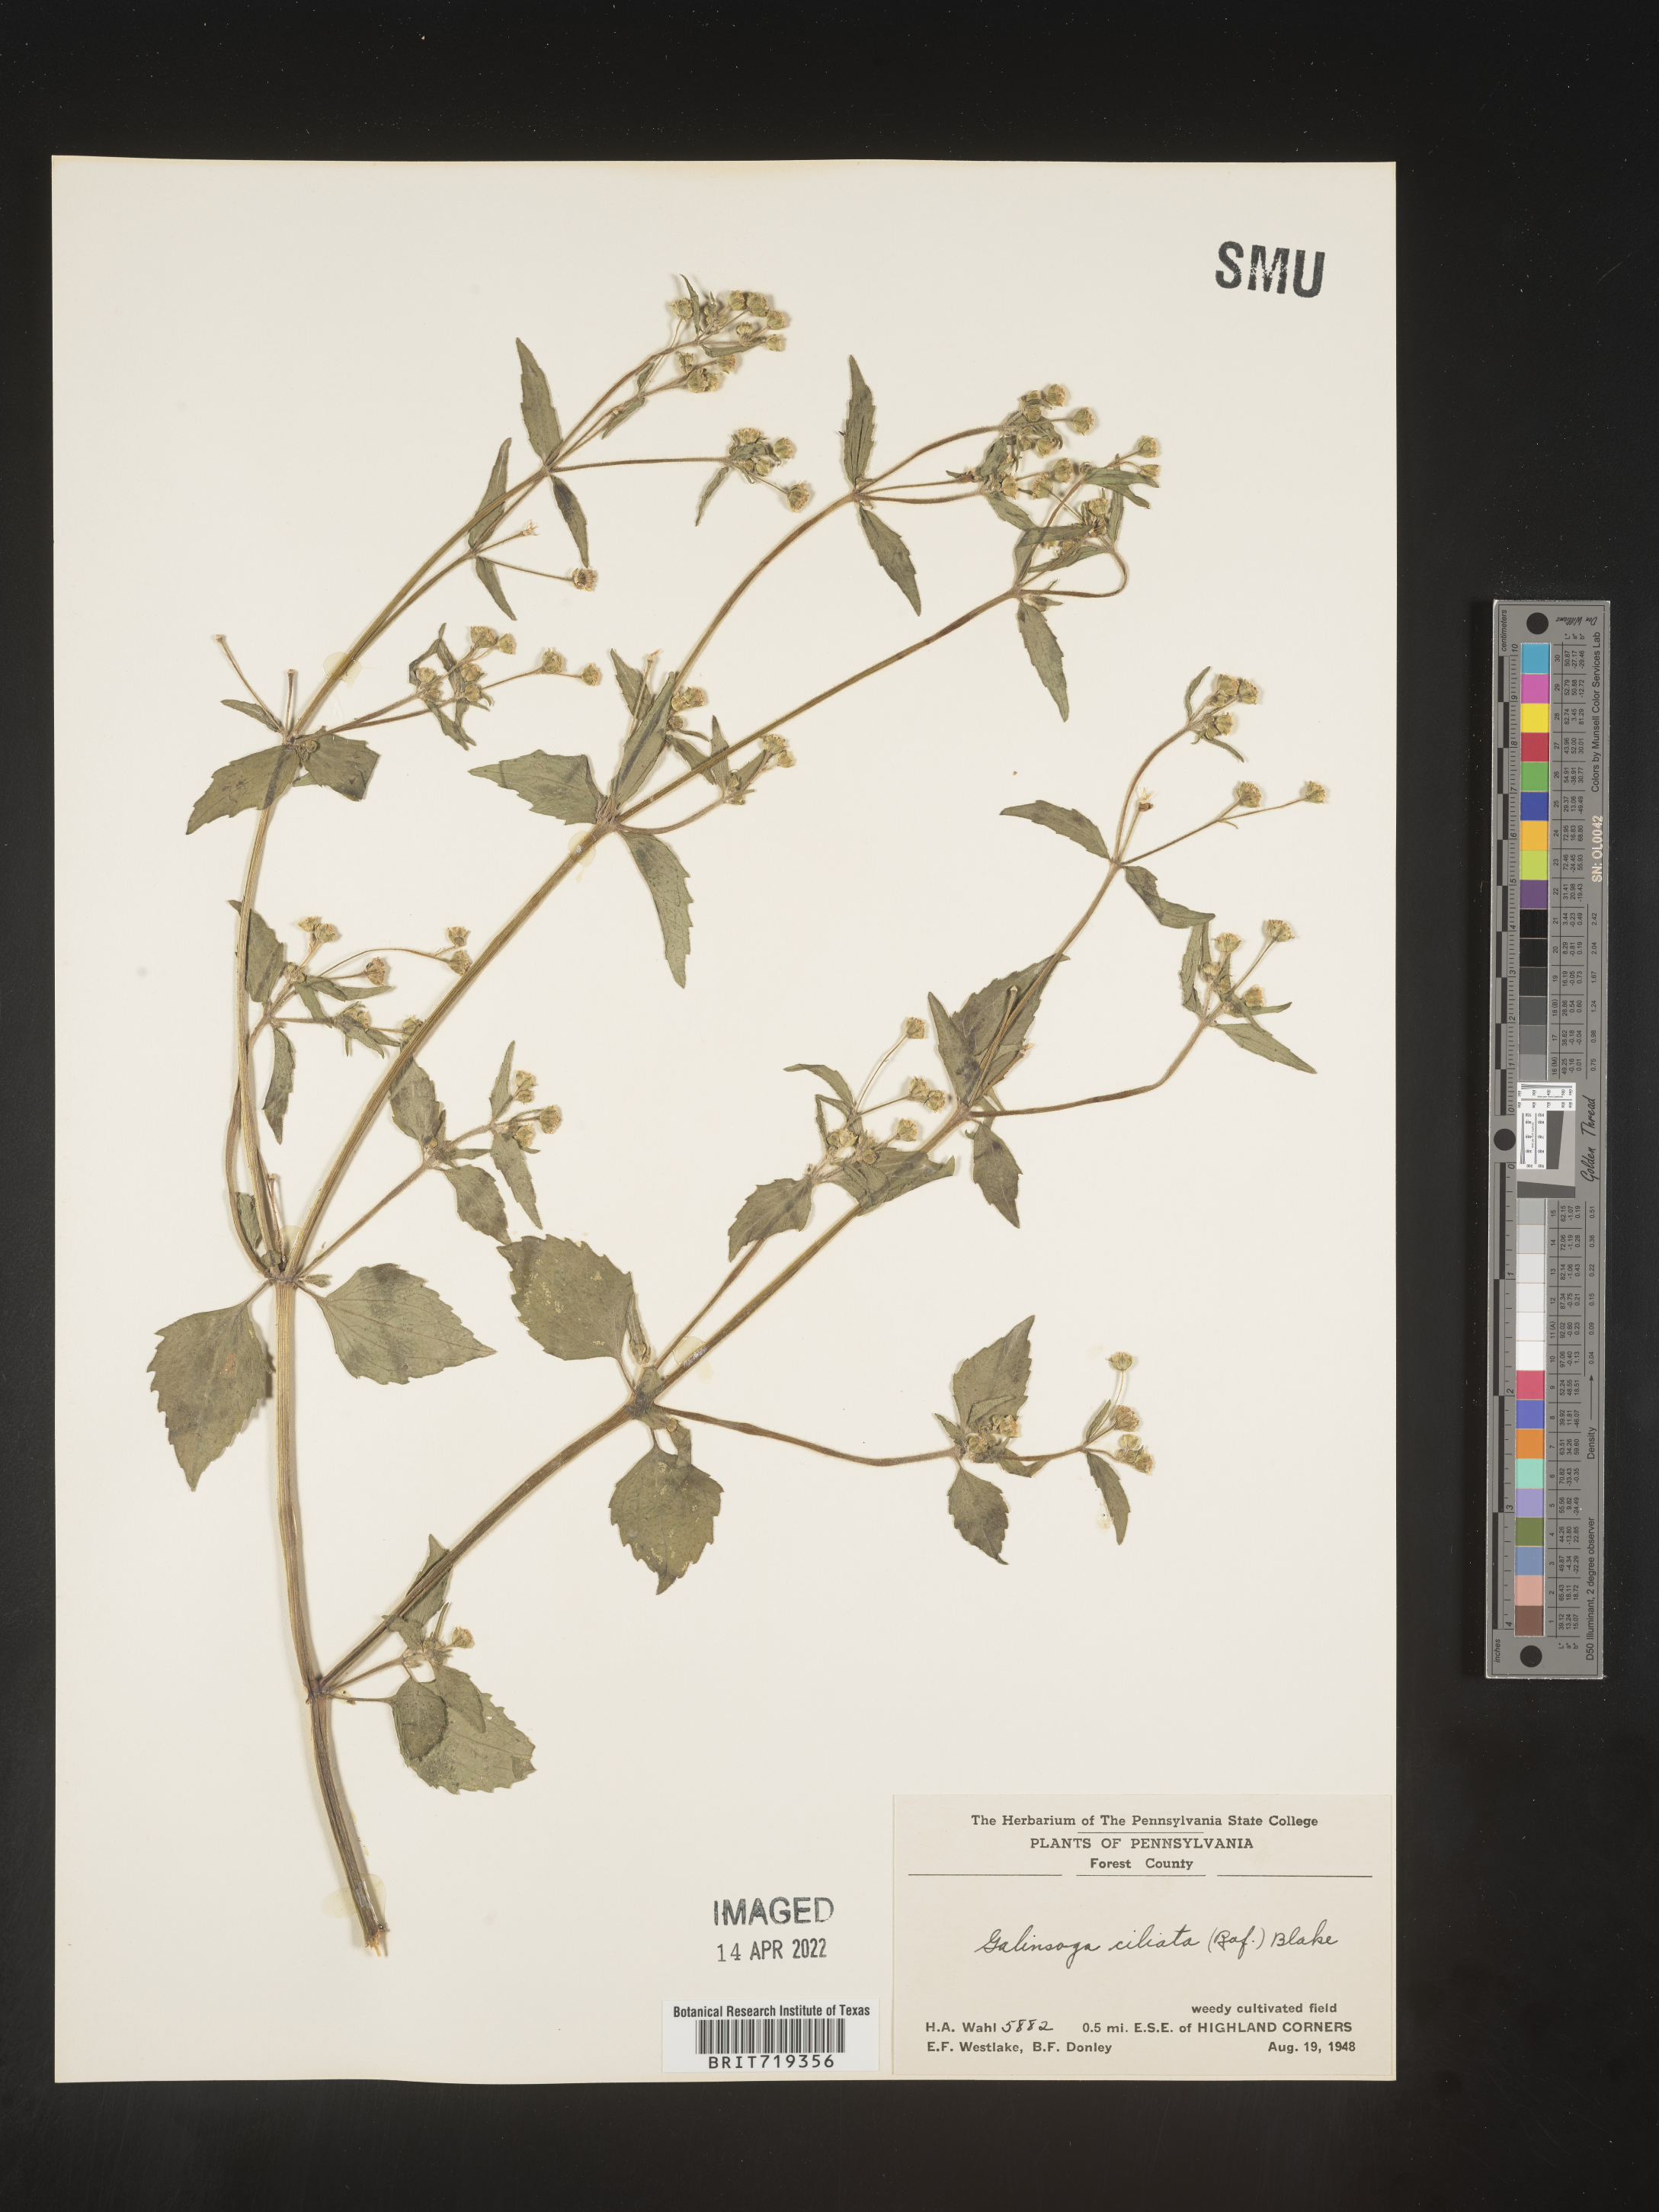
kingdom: Plantae
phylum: Tracheophyta
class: Magnoliopsida
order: Asterales
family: Asteraceae
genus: Galinsoga
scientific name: Galinsoga quadriradiata
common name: Shaggy soldier
